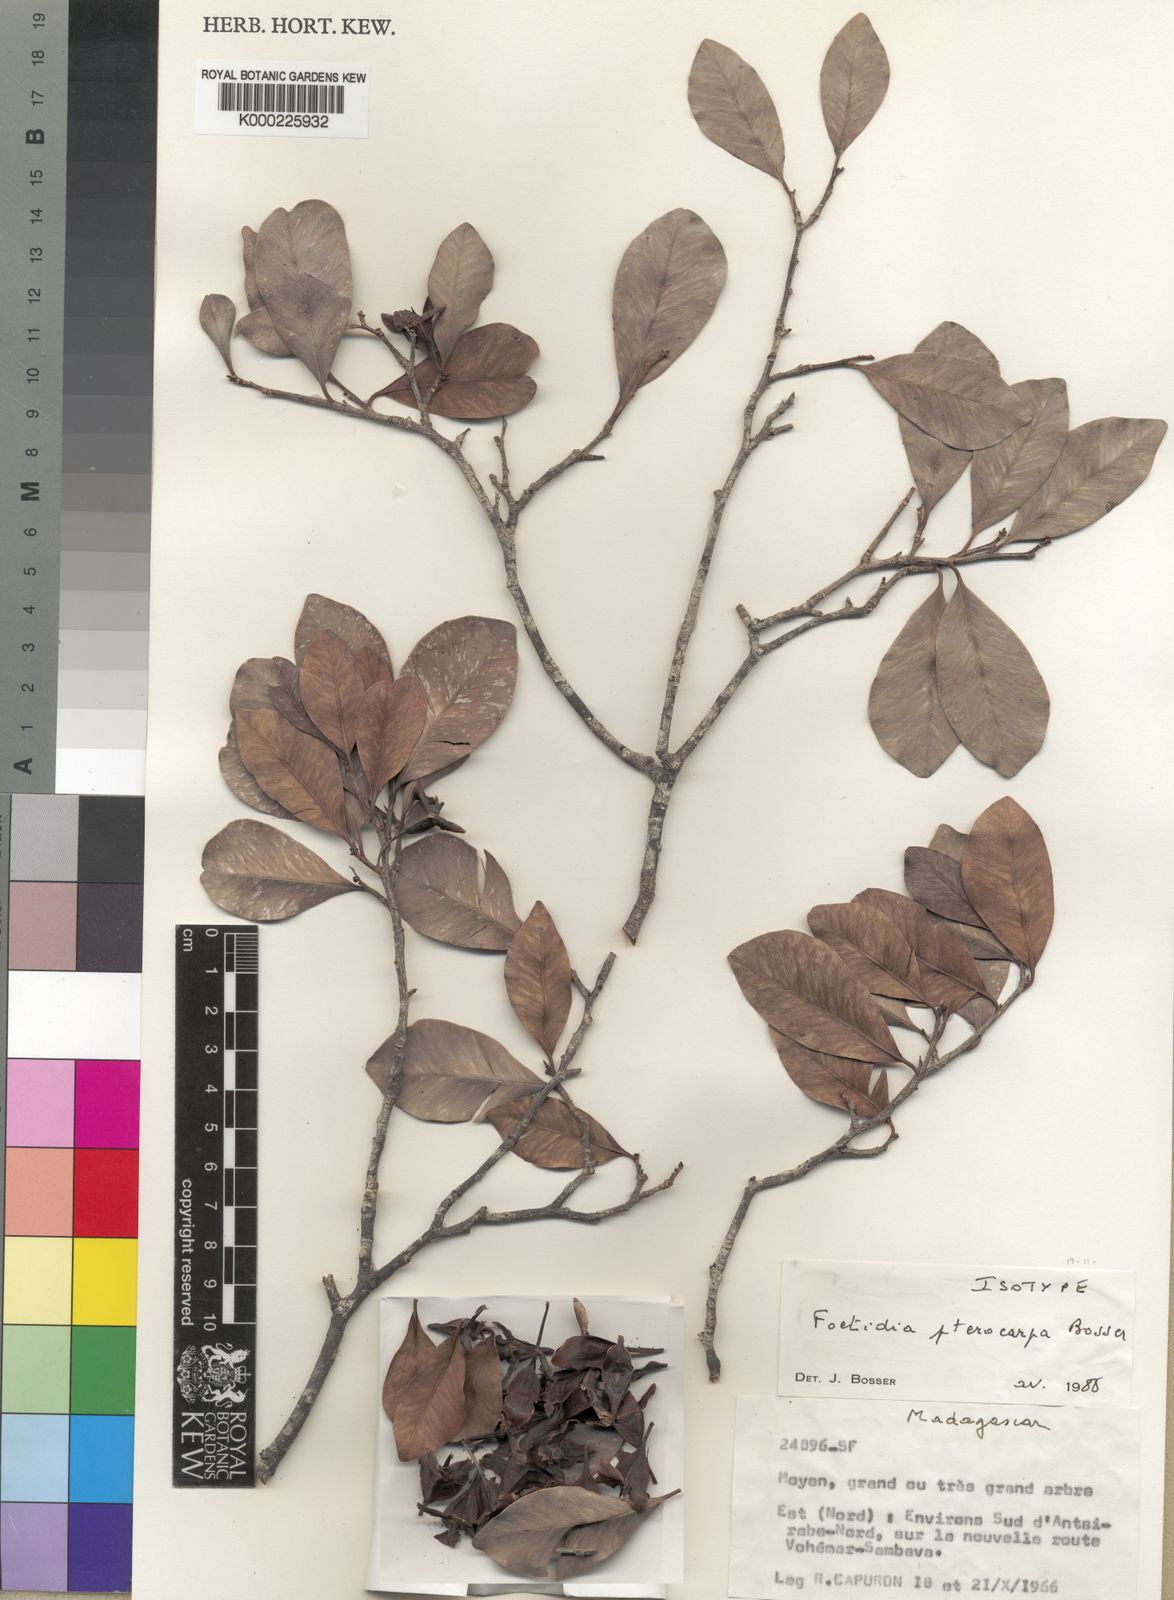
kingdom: Plantae
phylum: Tracheophyta
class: Magnoliopsida
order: Ericales
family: Lecythidaceae
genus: Foetidia
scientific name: Foetidia pterocarpa
